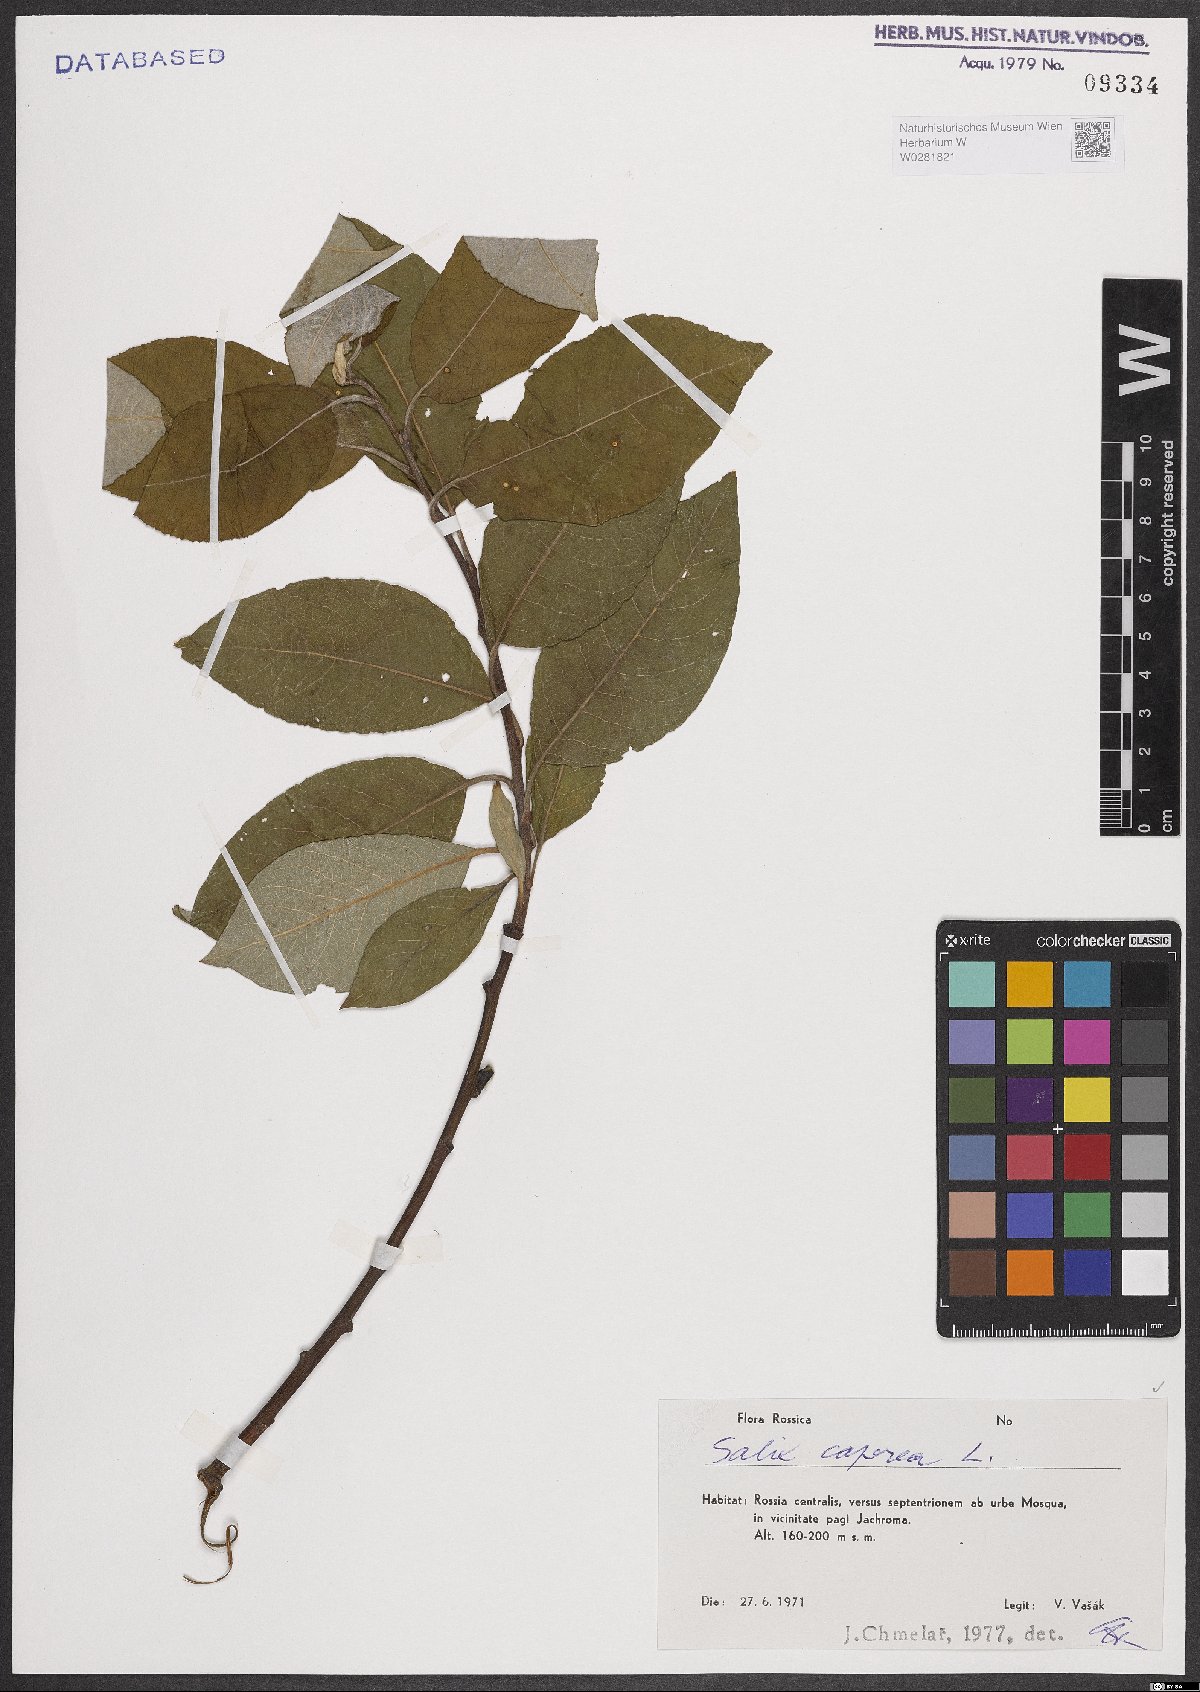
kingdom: Plantae
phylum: Tracheophyta
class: Magnoliopsida
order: Malpighiales
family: Salicaceae
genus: Salix
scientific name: Salix caprea
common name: Goat willow
